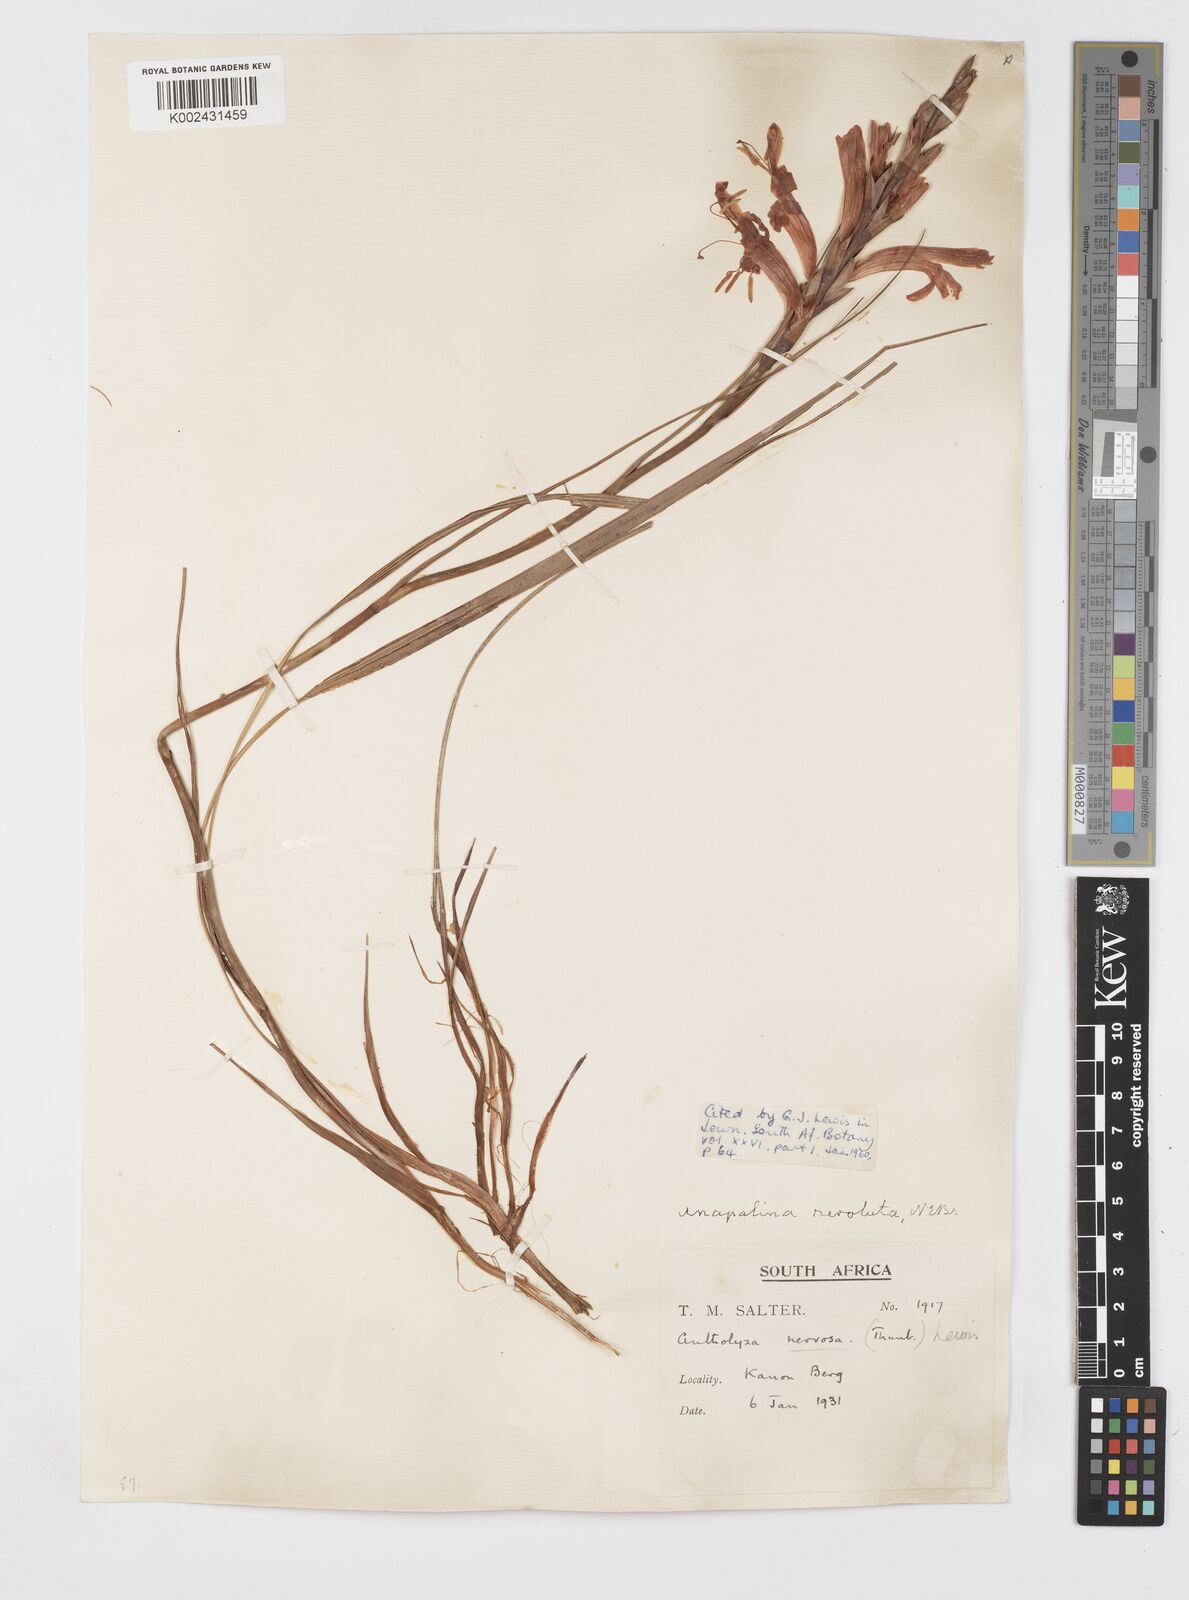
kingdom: Plantae
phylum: Tracheophyta
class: Liliopsida
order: Asparagales
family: Iridaceae
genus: Tritoniopsis
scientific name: Tritoniopsis nervosa
